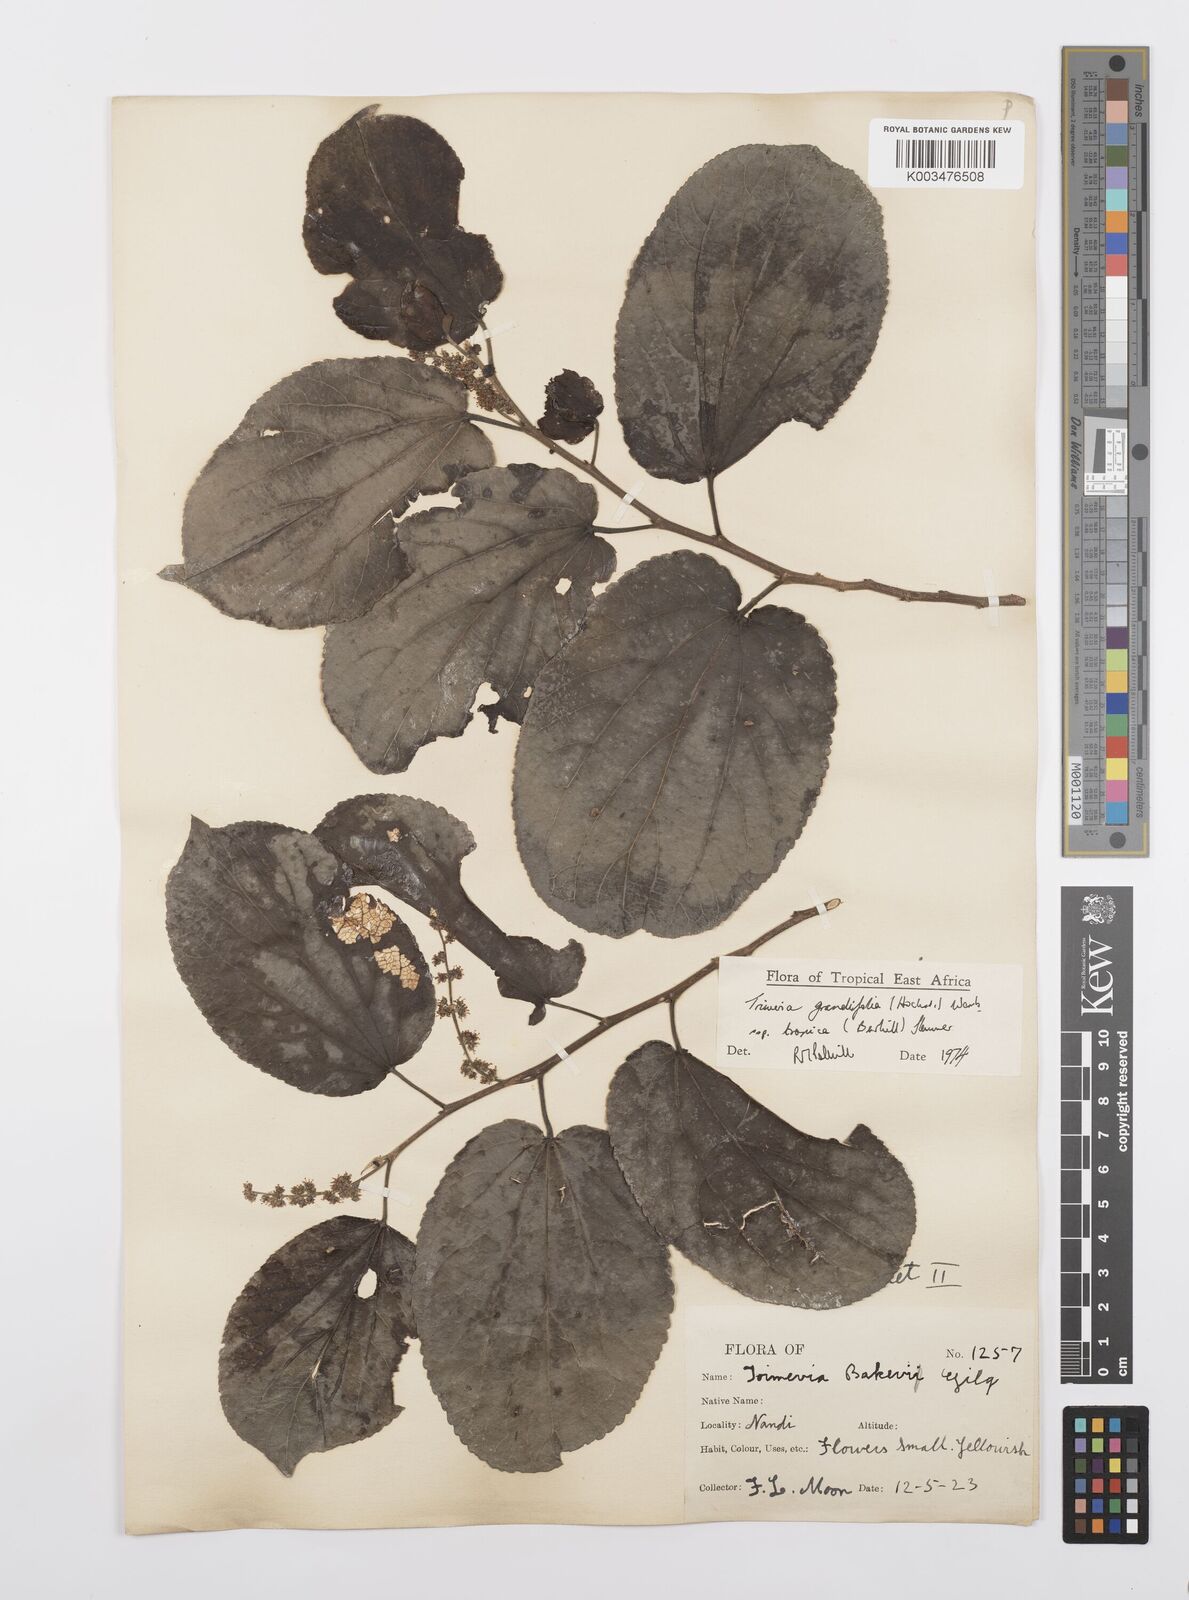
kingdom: Plantae
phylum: Tracheophyta
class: Magnoliopsida
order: Malpighiales
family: Salicaceae
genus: Trimeria
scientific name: Trimeria grandifolia
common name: Wild mulberry
